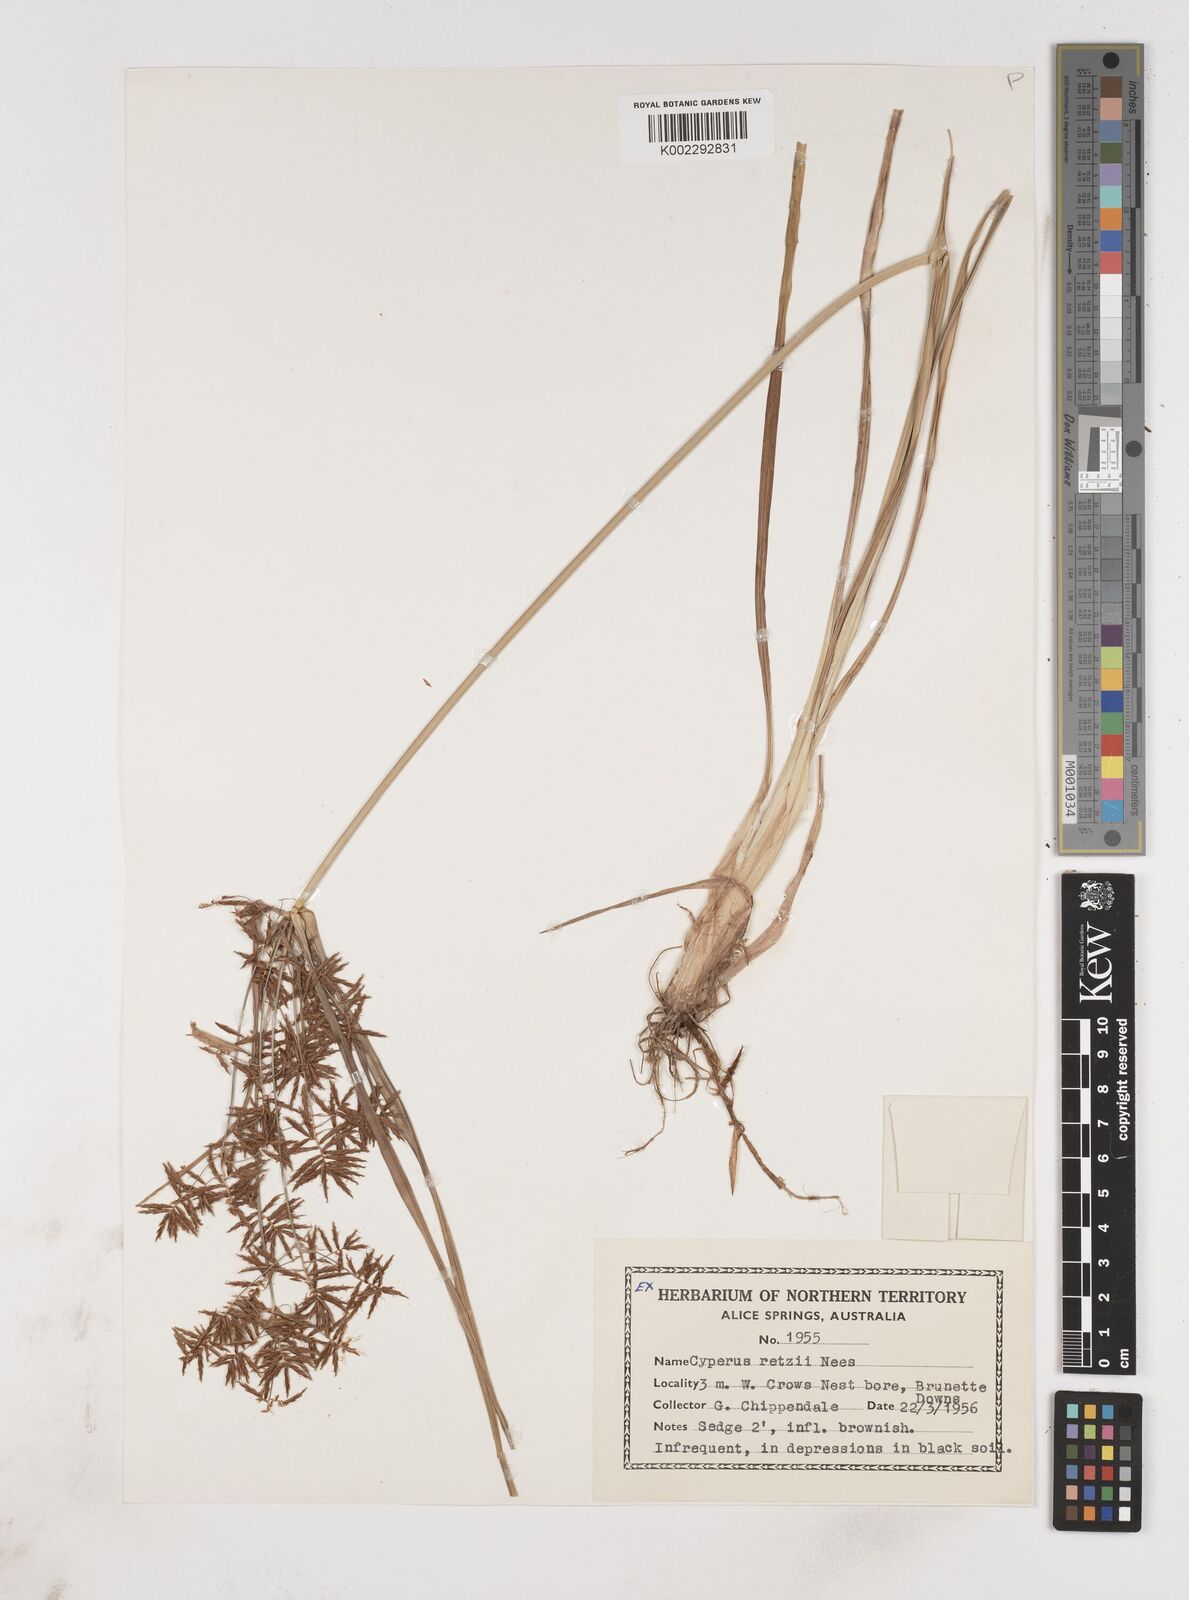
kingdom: Plantae
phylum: Tracheophyta
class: Liliopsida
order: Poales
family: Cyperaceae
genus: Cyperus
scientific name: Cyperus bifax
